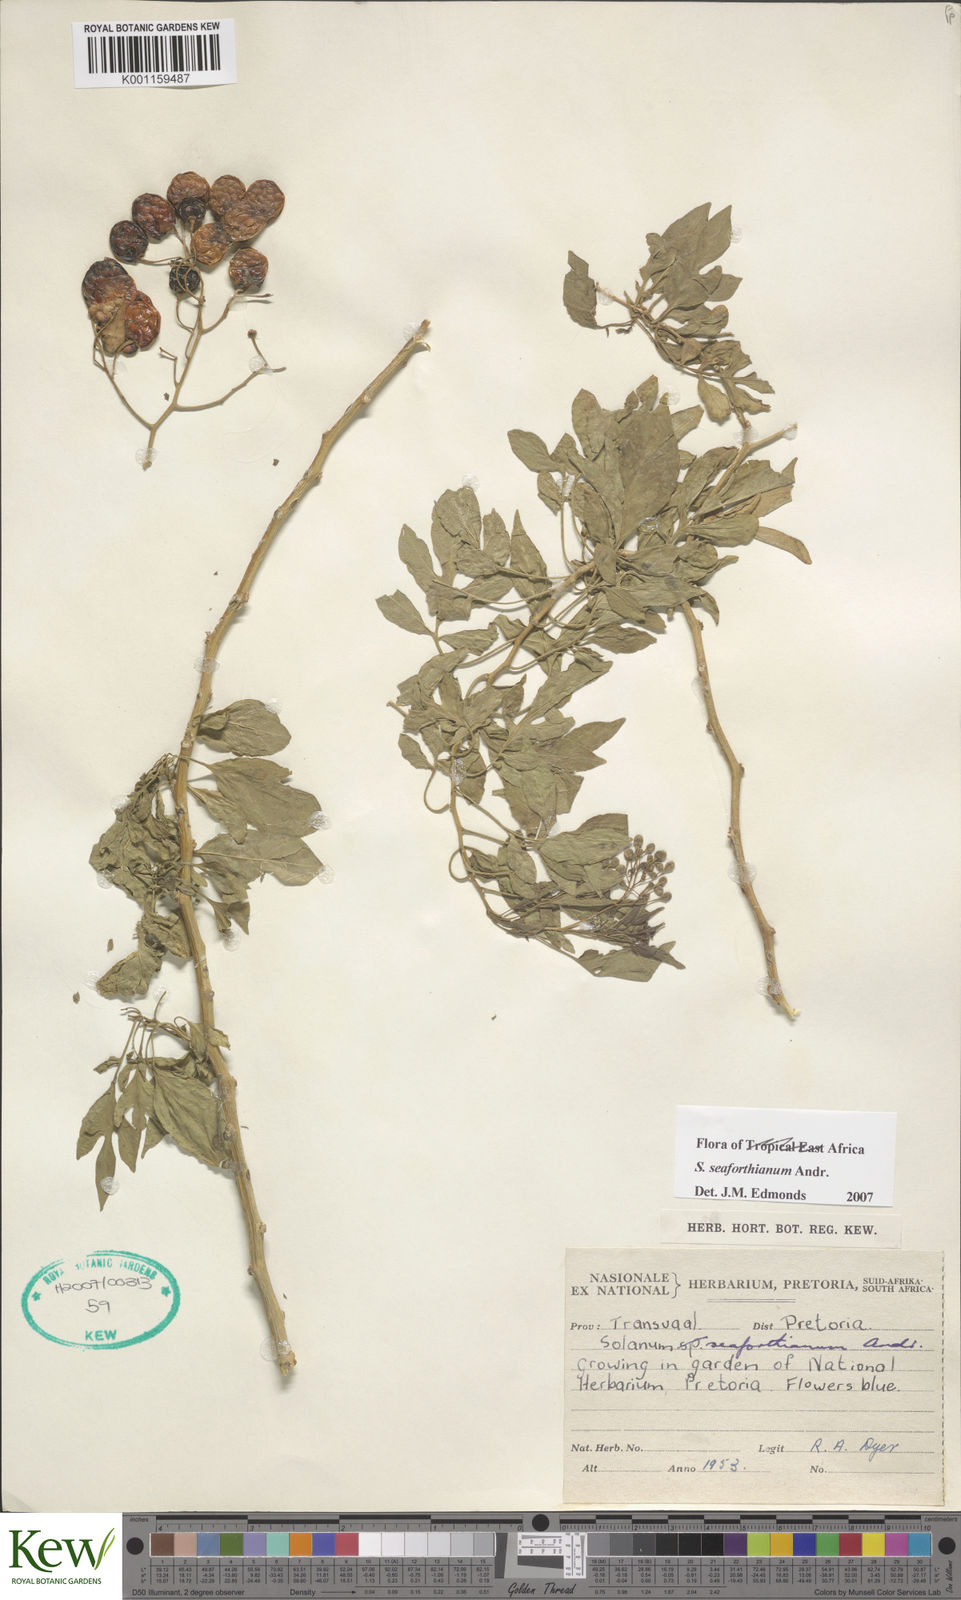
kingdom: Plantae
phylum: Tracheophyta
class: Magnoliopsida
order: Solanales
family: Solanaceae
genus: Solanum
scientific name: Solanum seaforthianum
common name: Brazilian nightshade
